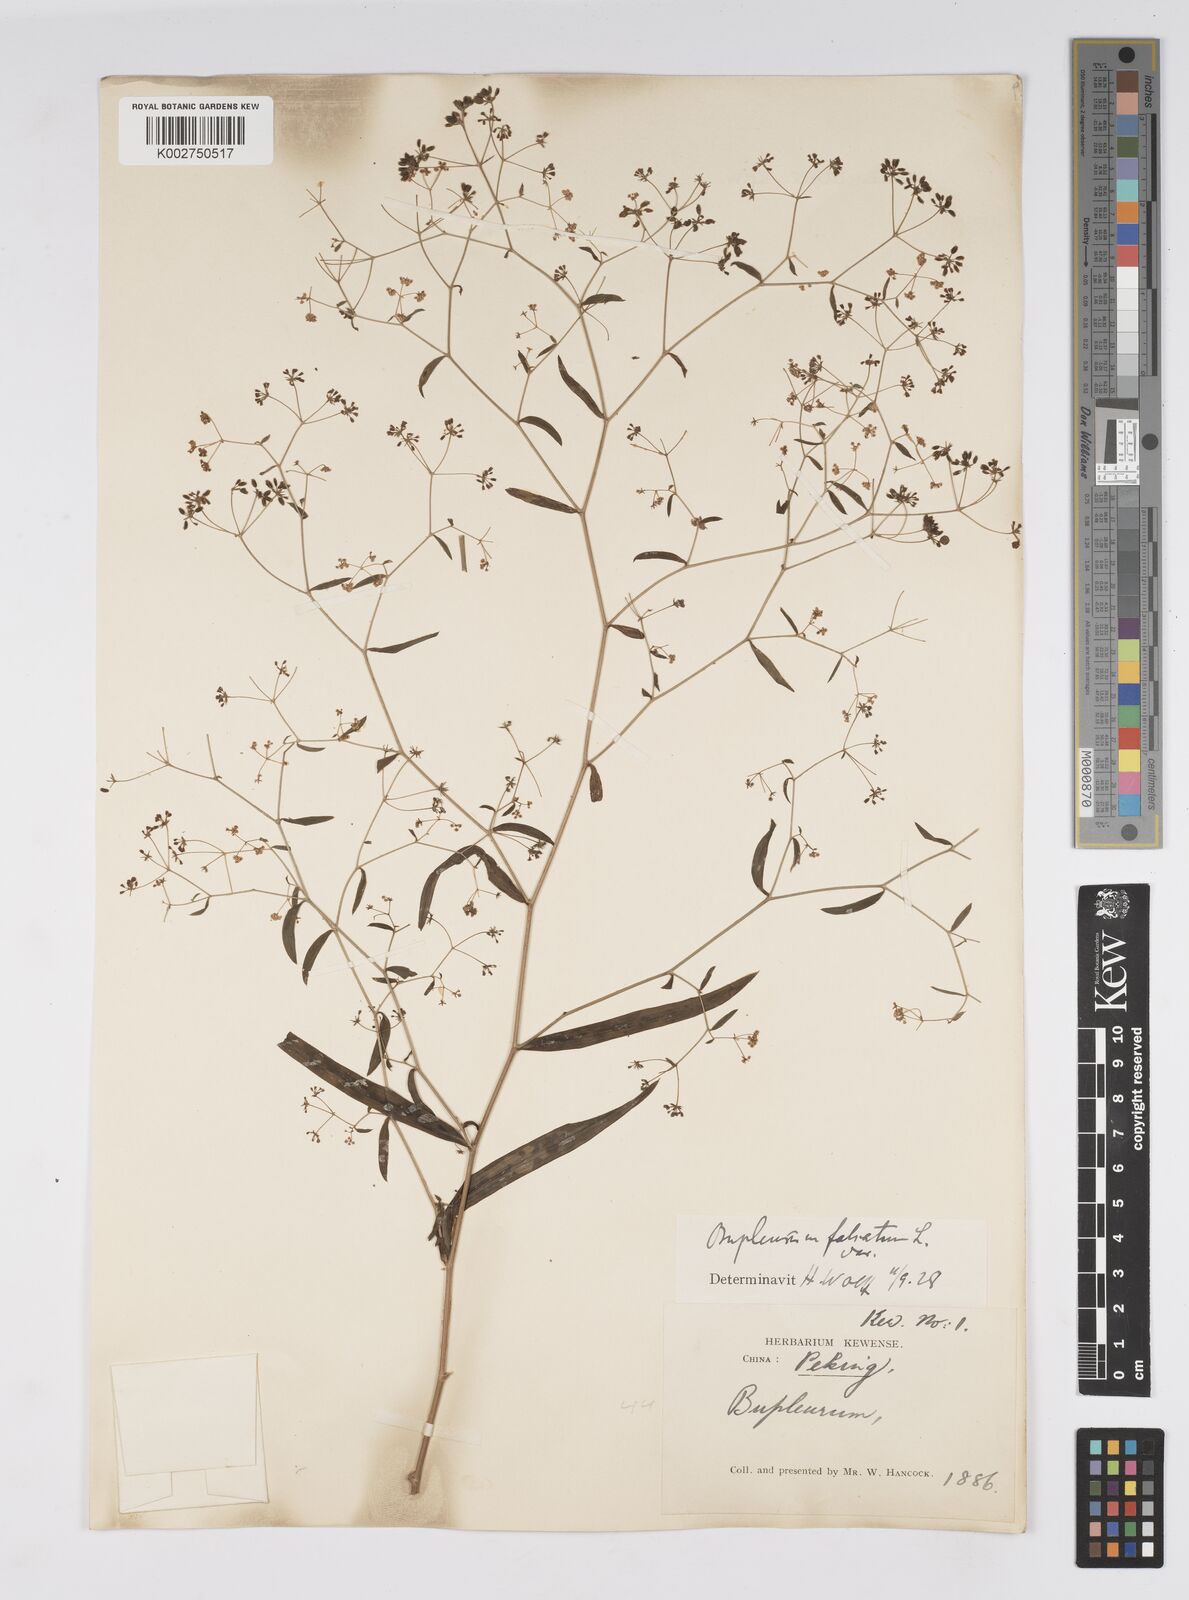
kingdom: Plantae
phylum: Tracheophyta
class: Magnoliopsida
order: Apiales
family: Apiaceae
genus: Bupleurum
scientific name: Bupleurum krylovianum
